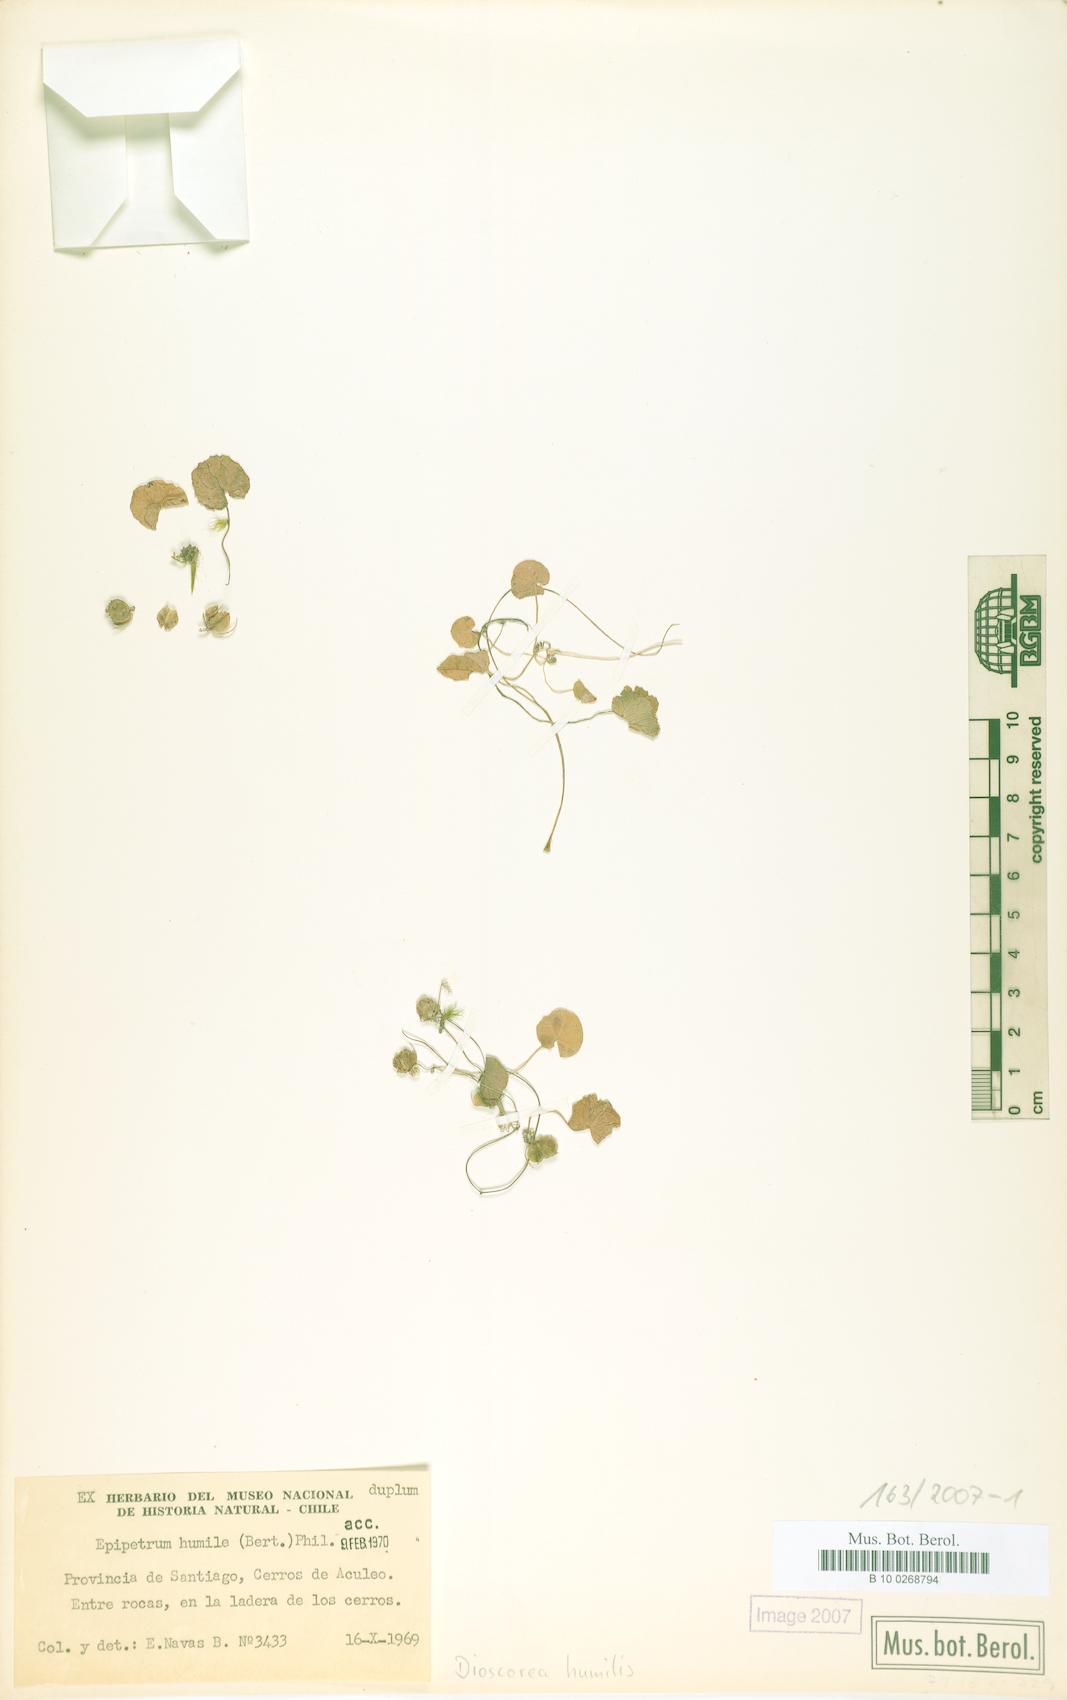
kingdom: Plantae
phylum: Tracheophyta
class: Liliopsida
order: Dioscoreales
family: Dioscoreaceae
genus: Dioscorea
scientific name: Dioscorea humilis
